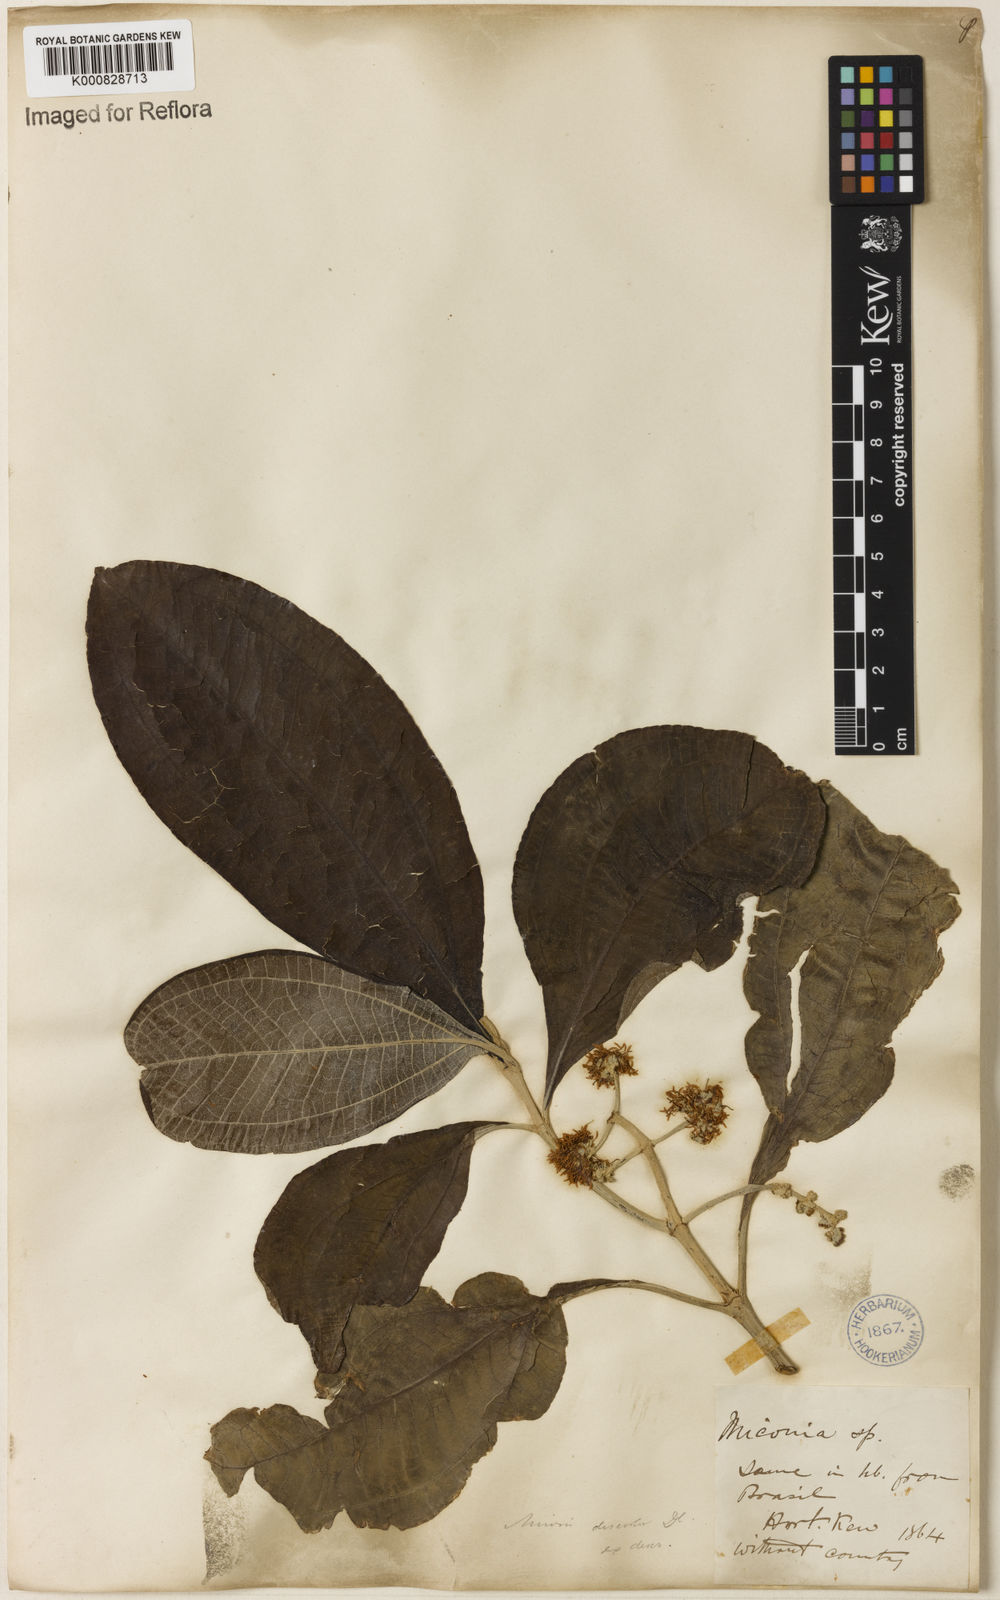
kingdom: Plantae
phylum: Tracheophyta
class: Magnoliopsida
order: Myrtales
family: Melastomataceae
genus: Miconia
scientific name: Miconia discolor
